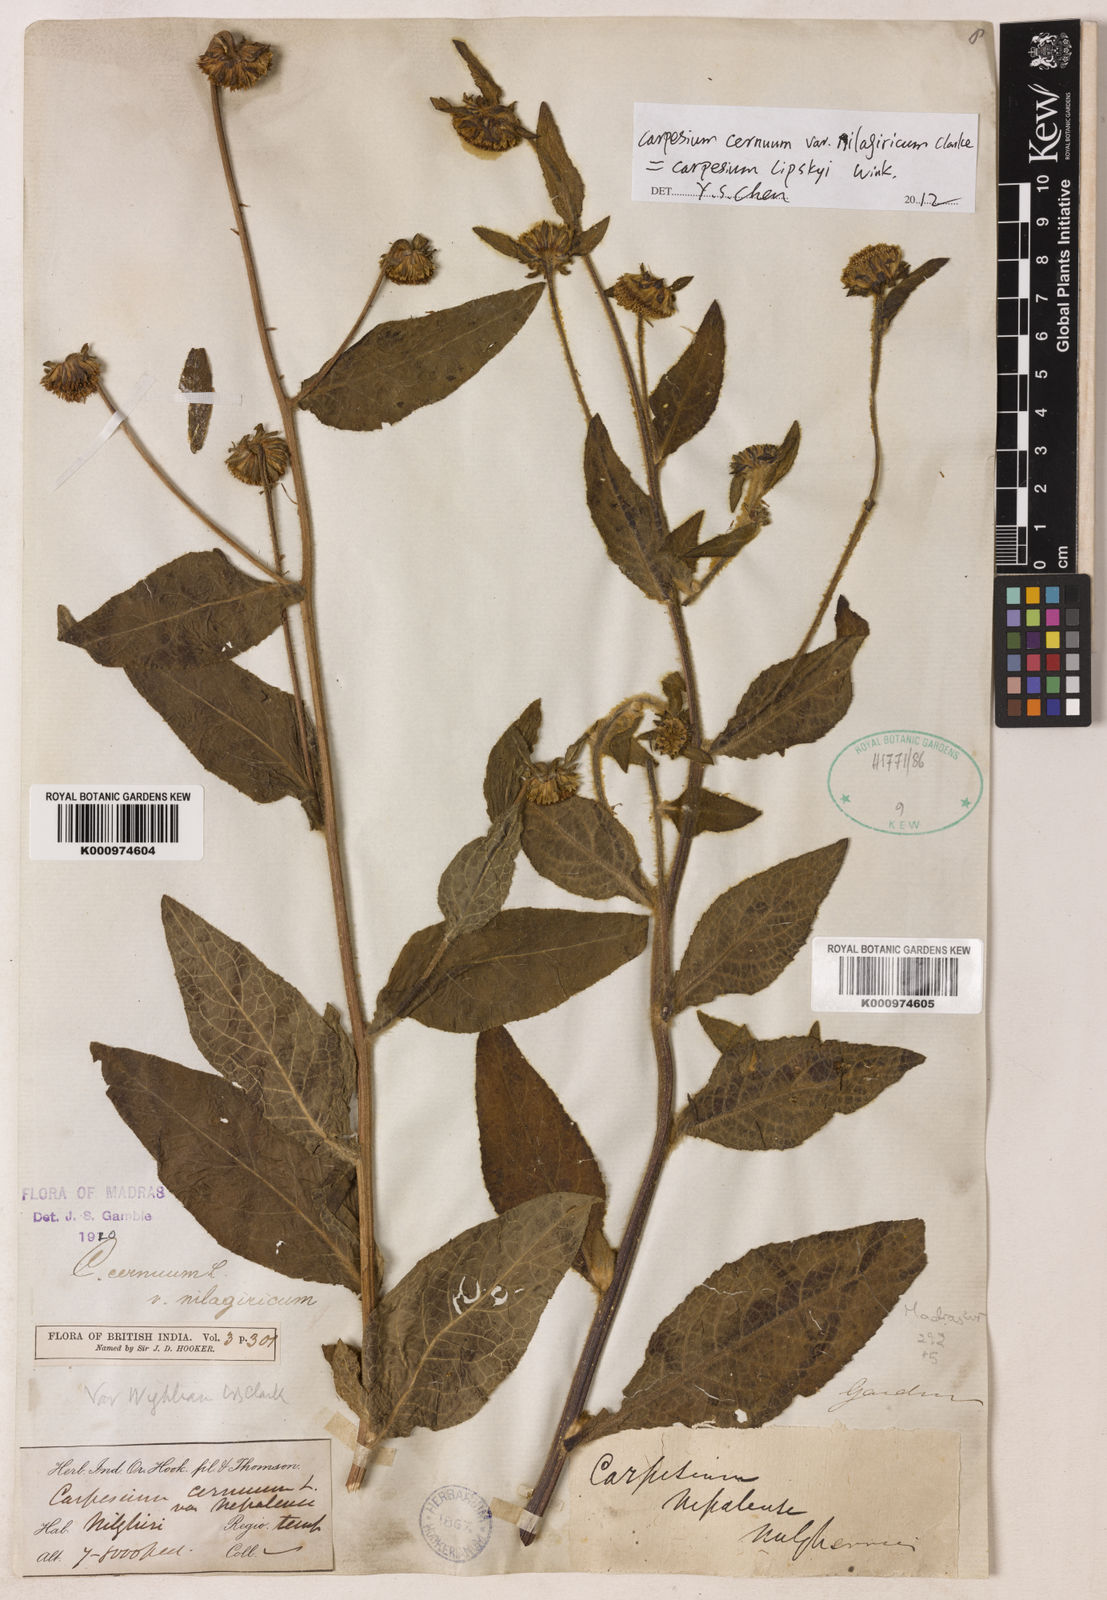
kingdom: Plantae
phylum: Tracheophyta
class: Magnoliopsida
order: Asterales
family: Asteraceae
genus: Carpesium
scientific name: Carpesium nepalense
